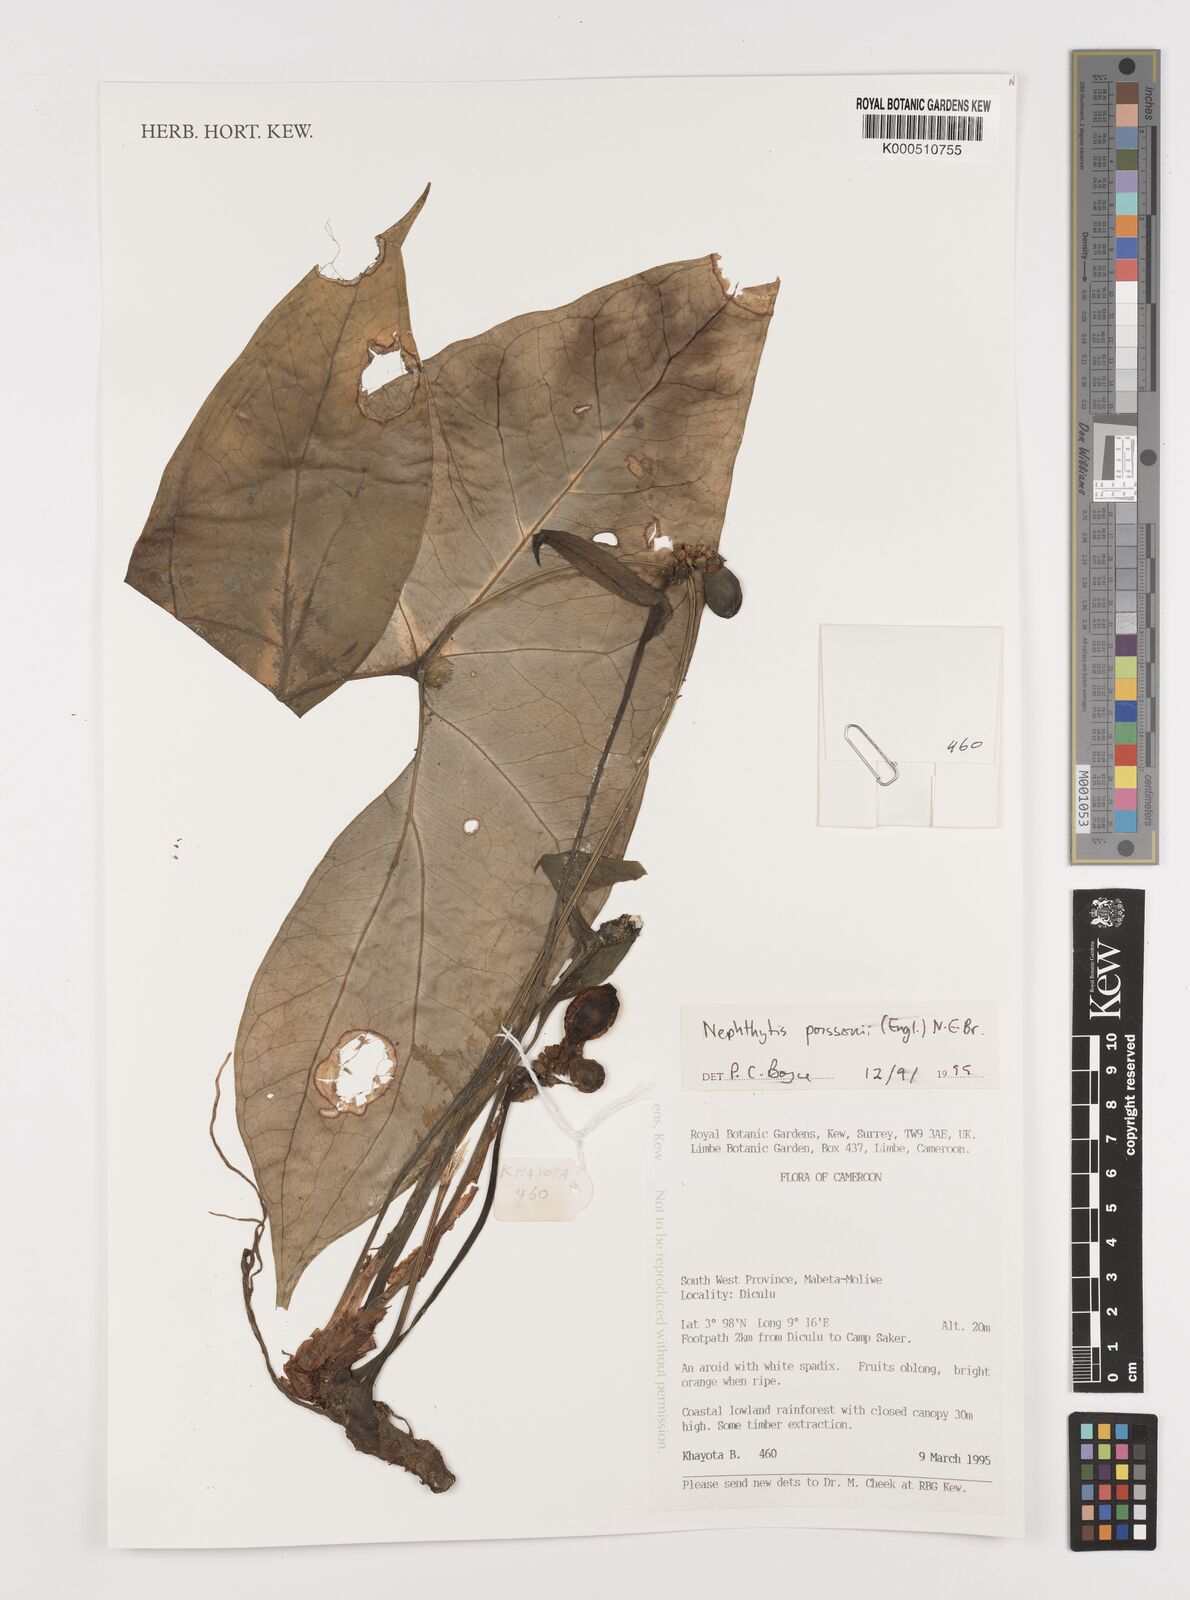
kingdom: Plantae
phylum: Tracheophyta
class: Liliopsida
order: Alismatales
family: Araceae
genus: Nephthytis
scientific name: Nephthytis poissonii
